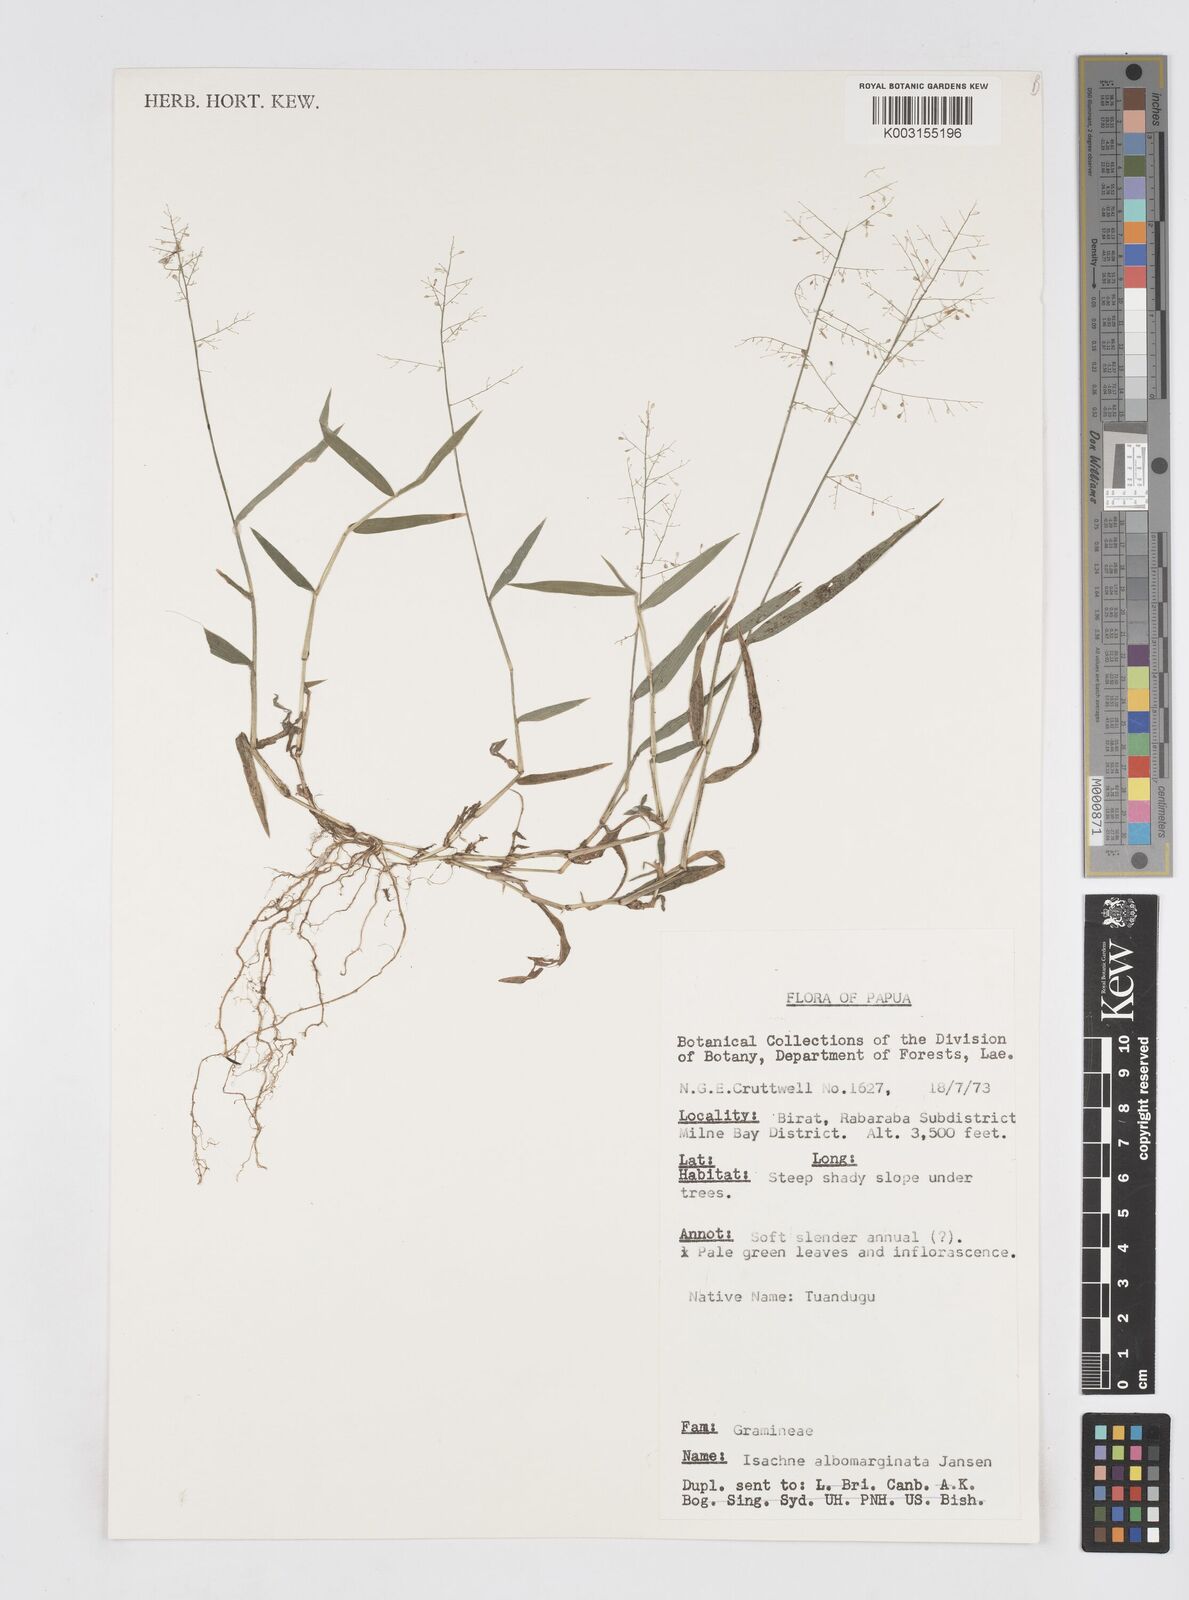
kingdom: Plantae
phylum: Tracheophyta
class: Liliopsida
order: Poales
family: Poaceae
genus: Isachne
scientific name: Isachne clarkei
